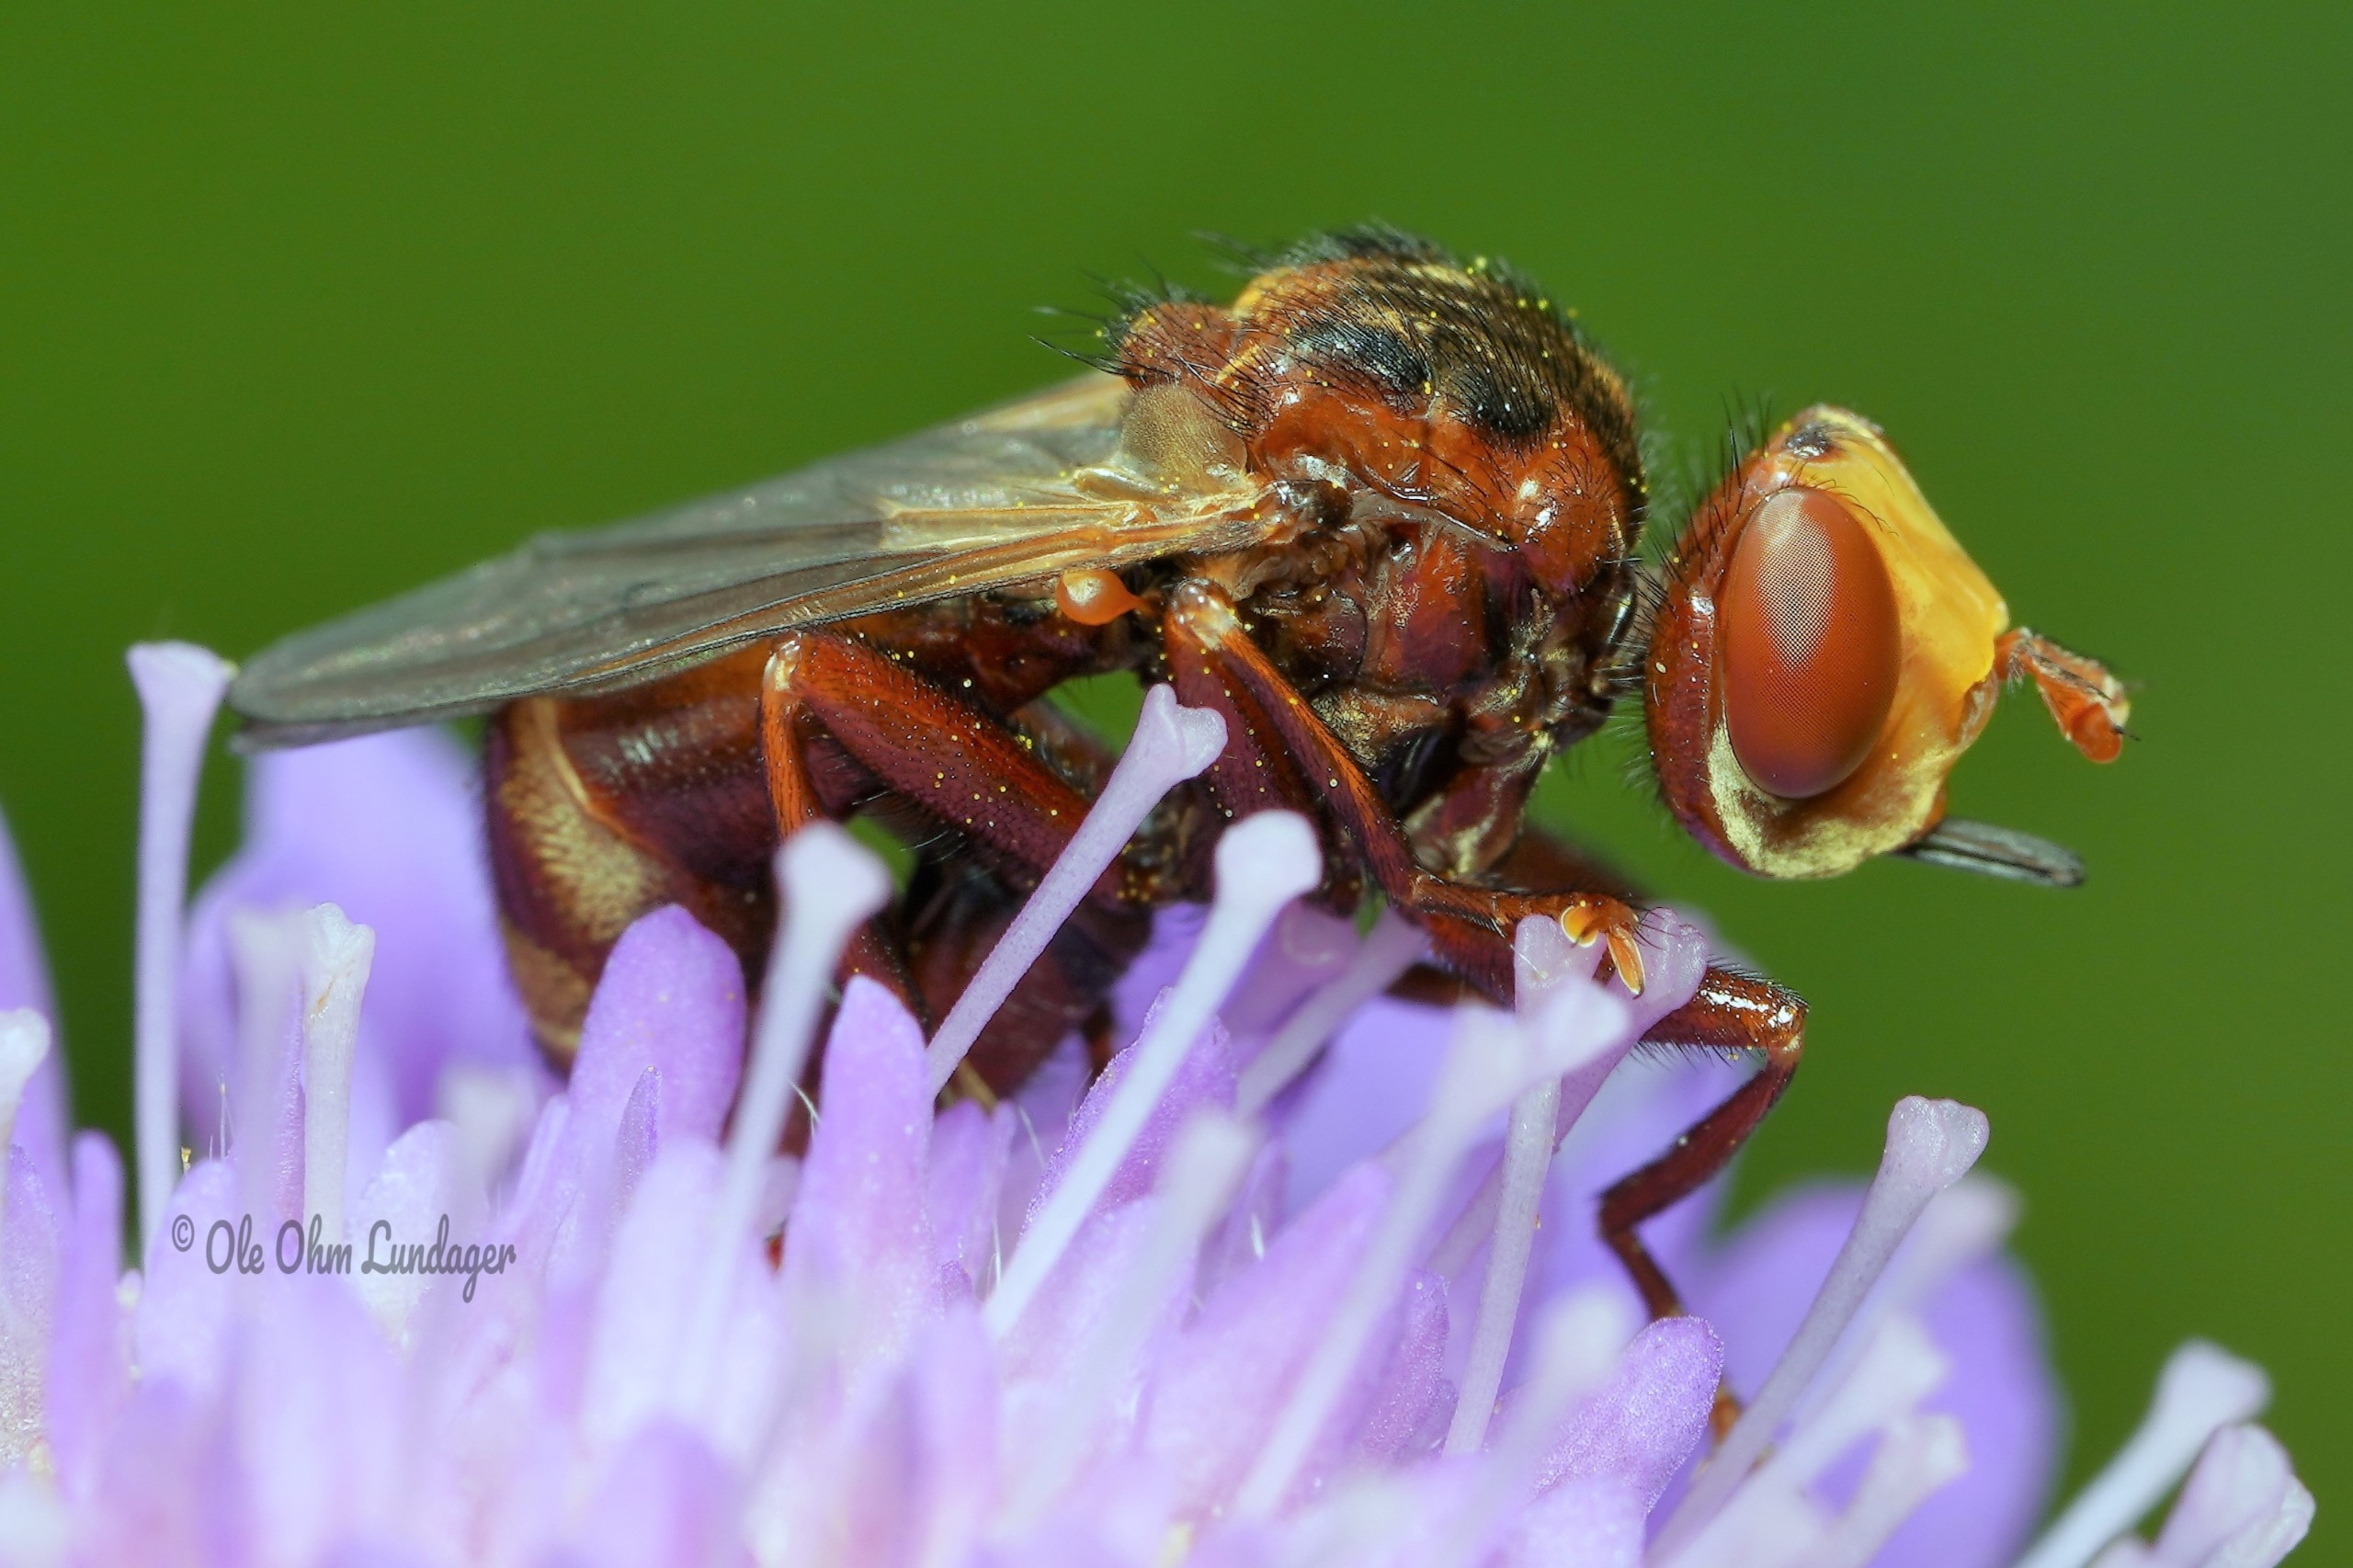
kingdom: Animalia
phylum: Arthropoda
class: Insecta
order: Diptera
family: Conopidae
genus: Sicus
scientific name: Sicus ferrugineus
